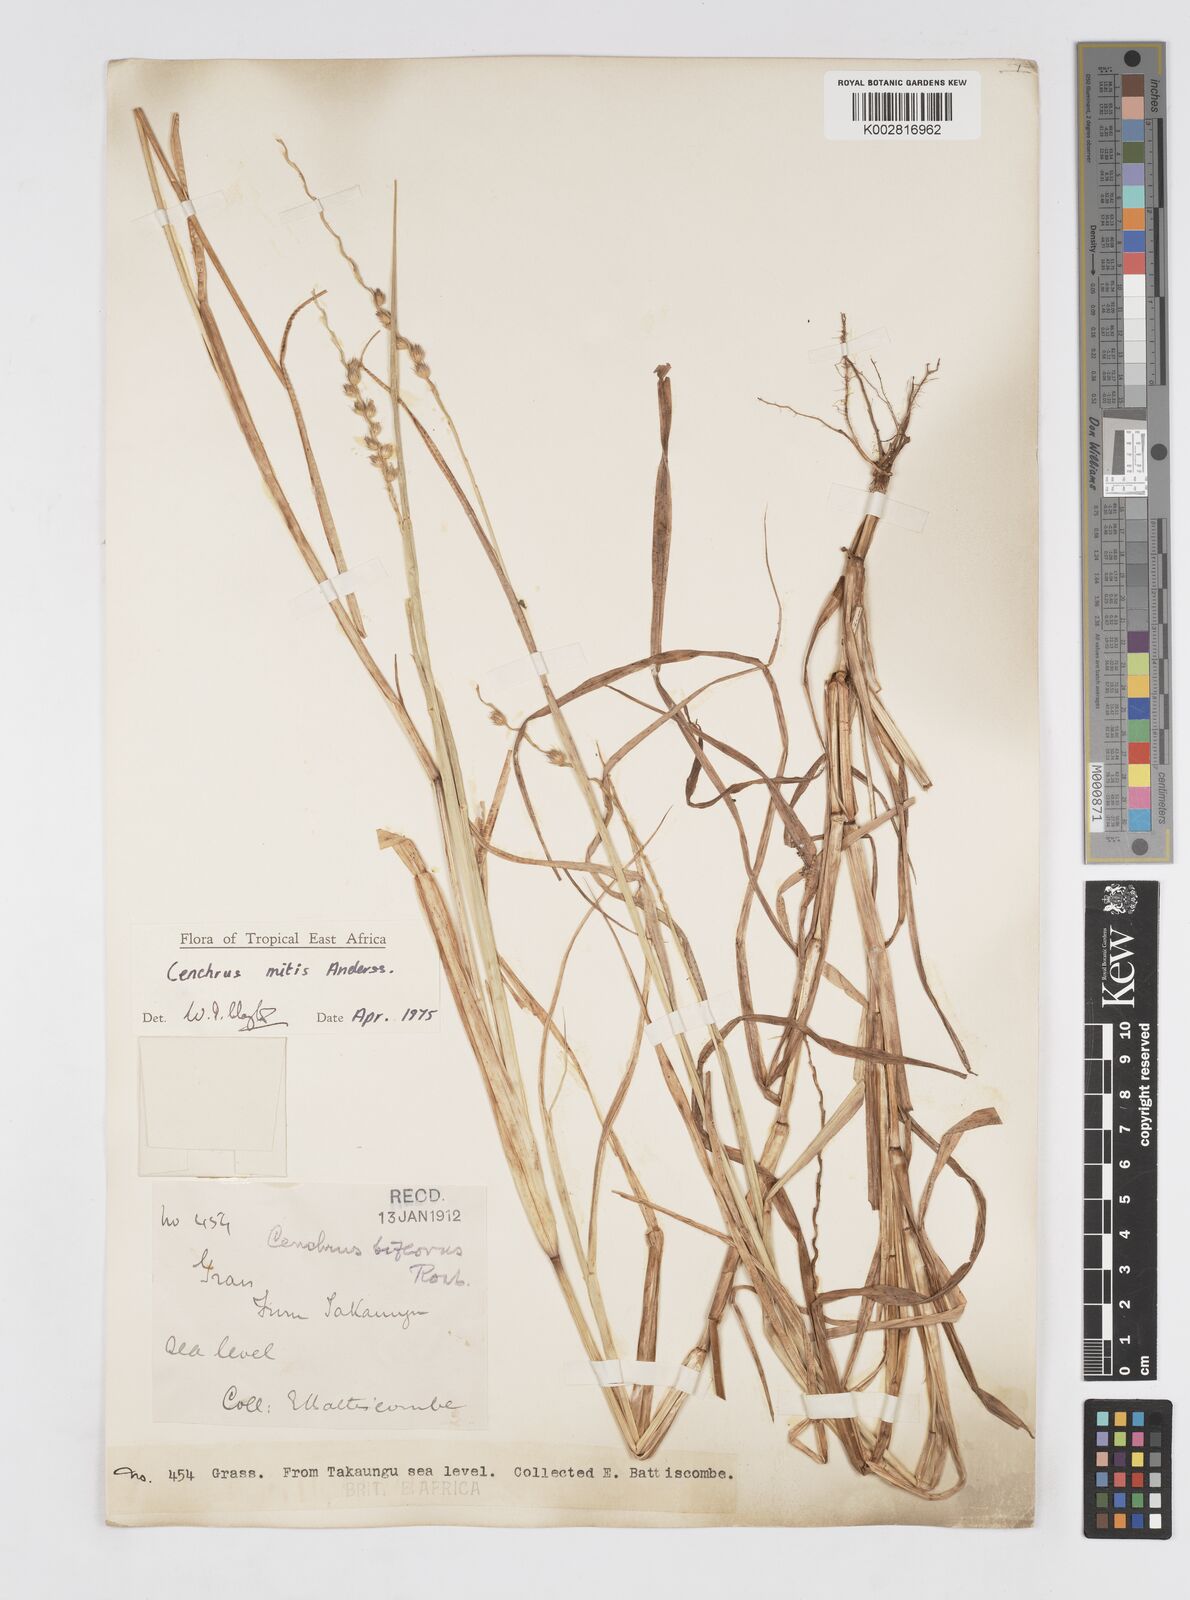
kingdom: Plantae
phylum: Tracheophyta
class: Liliopsida
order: Poales
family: Poaceae
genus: Cenchrus
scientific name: Cenchrus mitis
